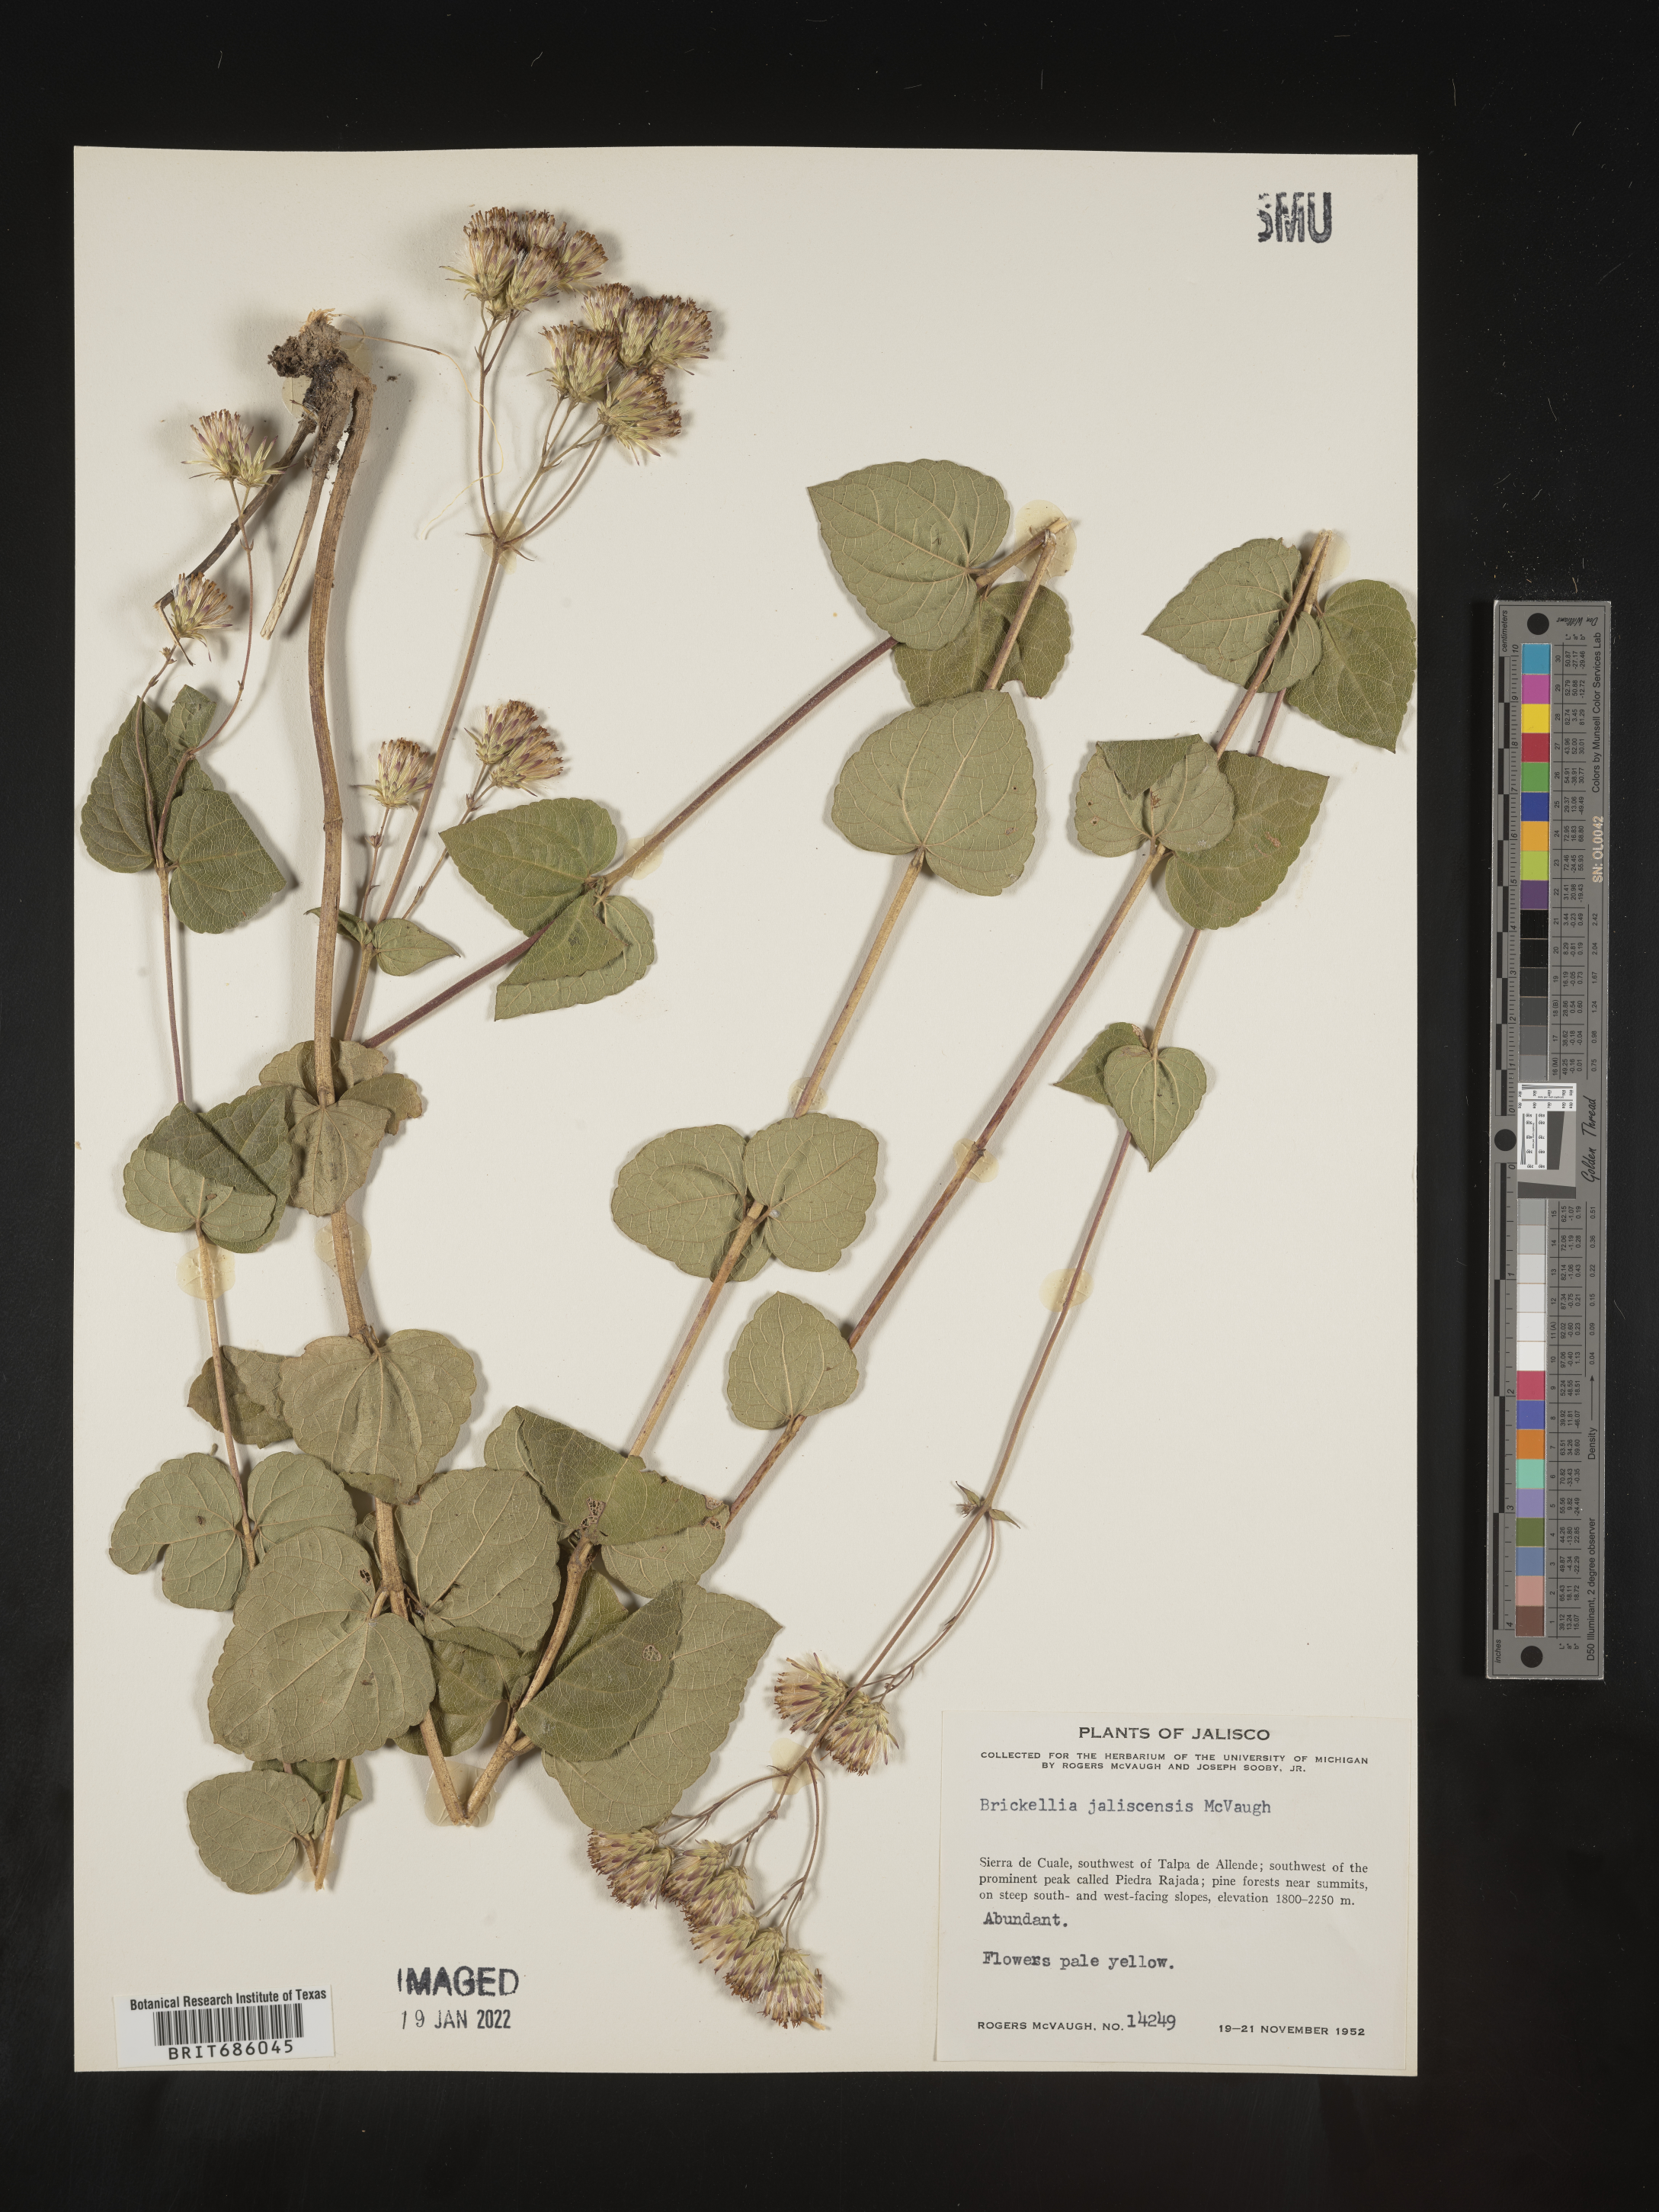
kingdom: Plantae
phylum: Tracheophyta
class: Magnoliopsida
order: Asterales
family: Asteraceae
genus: Brickellia
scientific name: Brickellia
